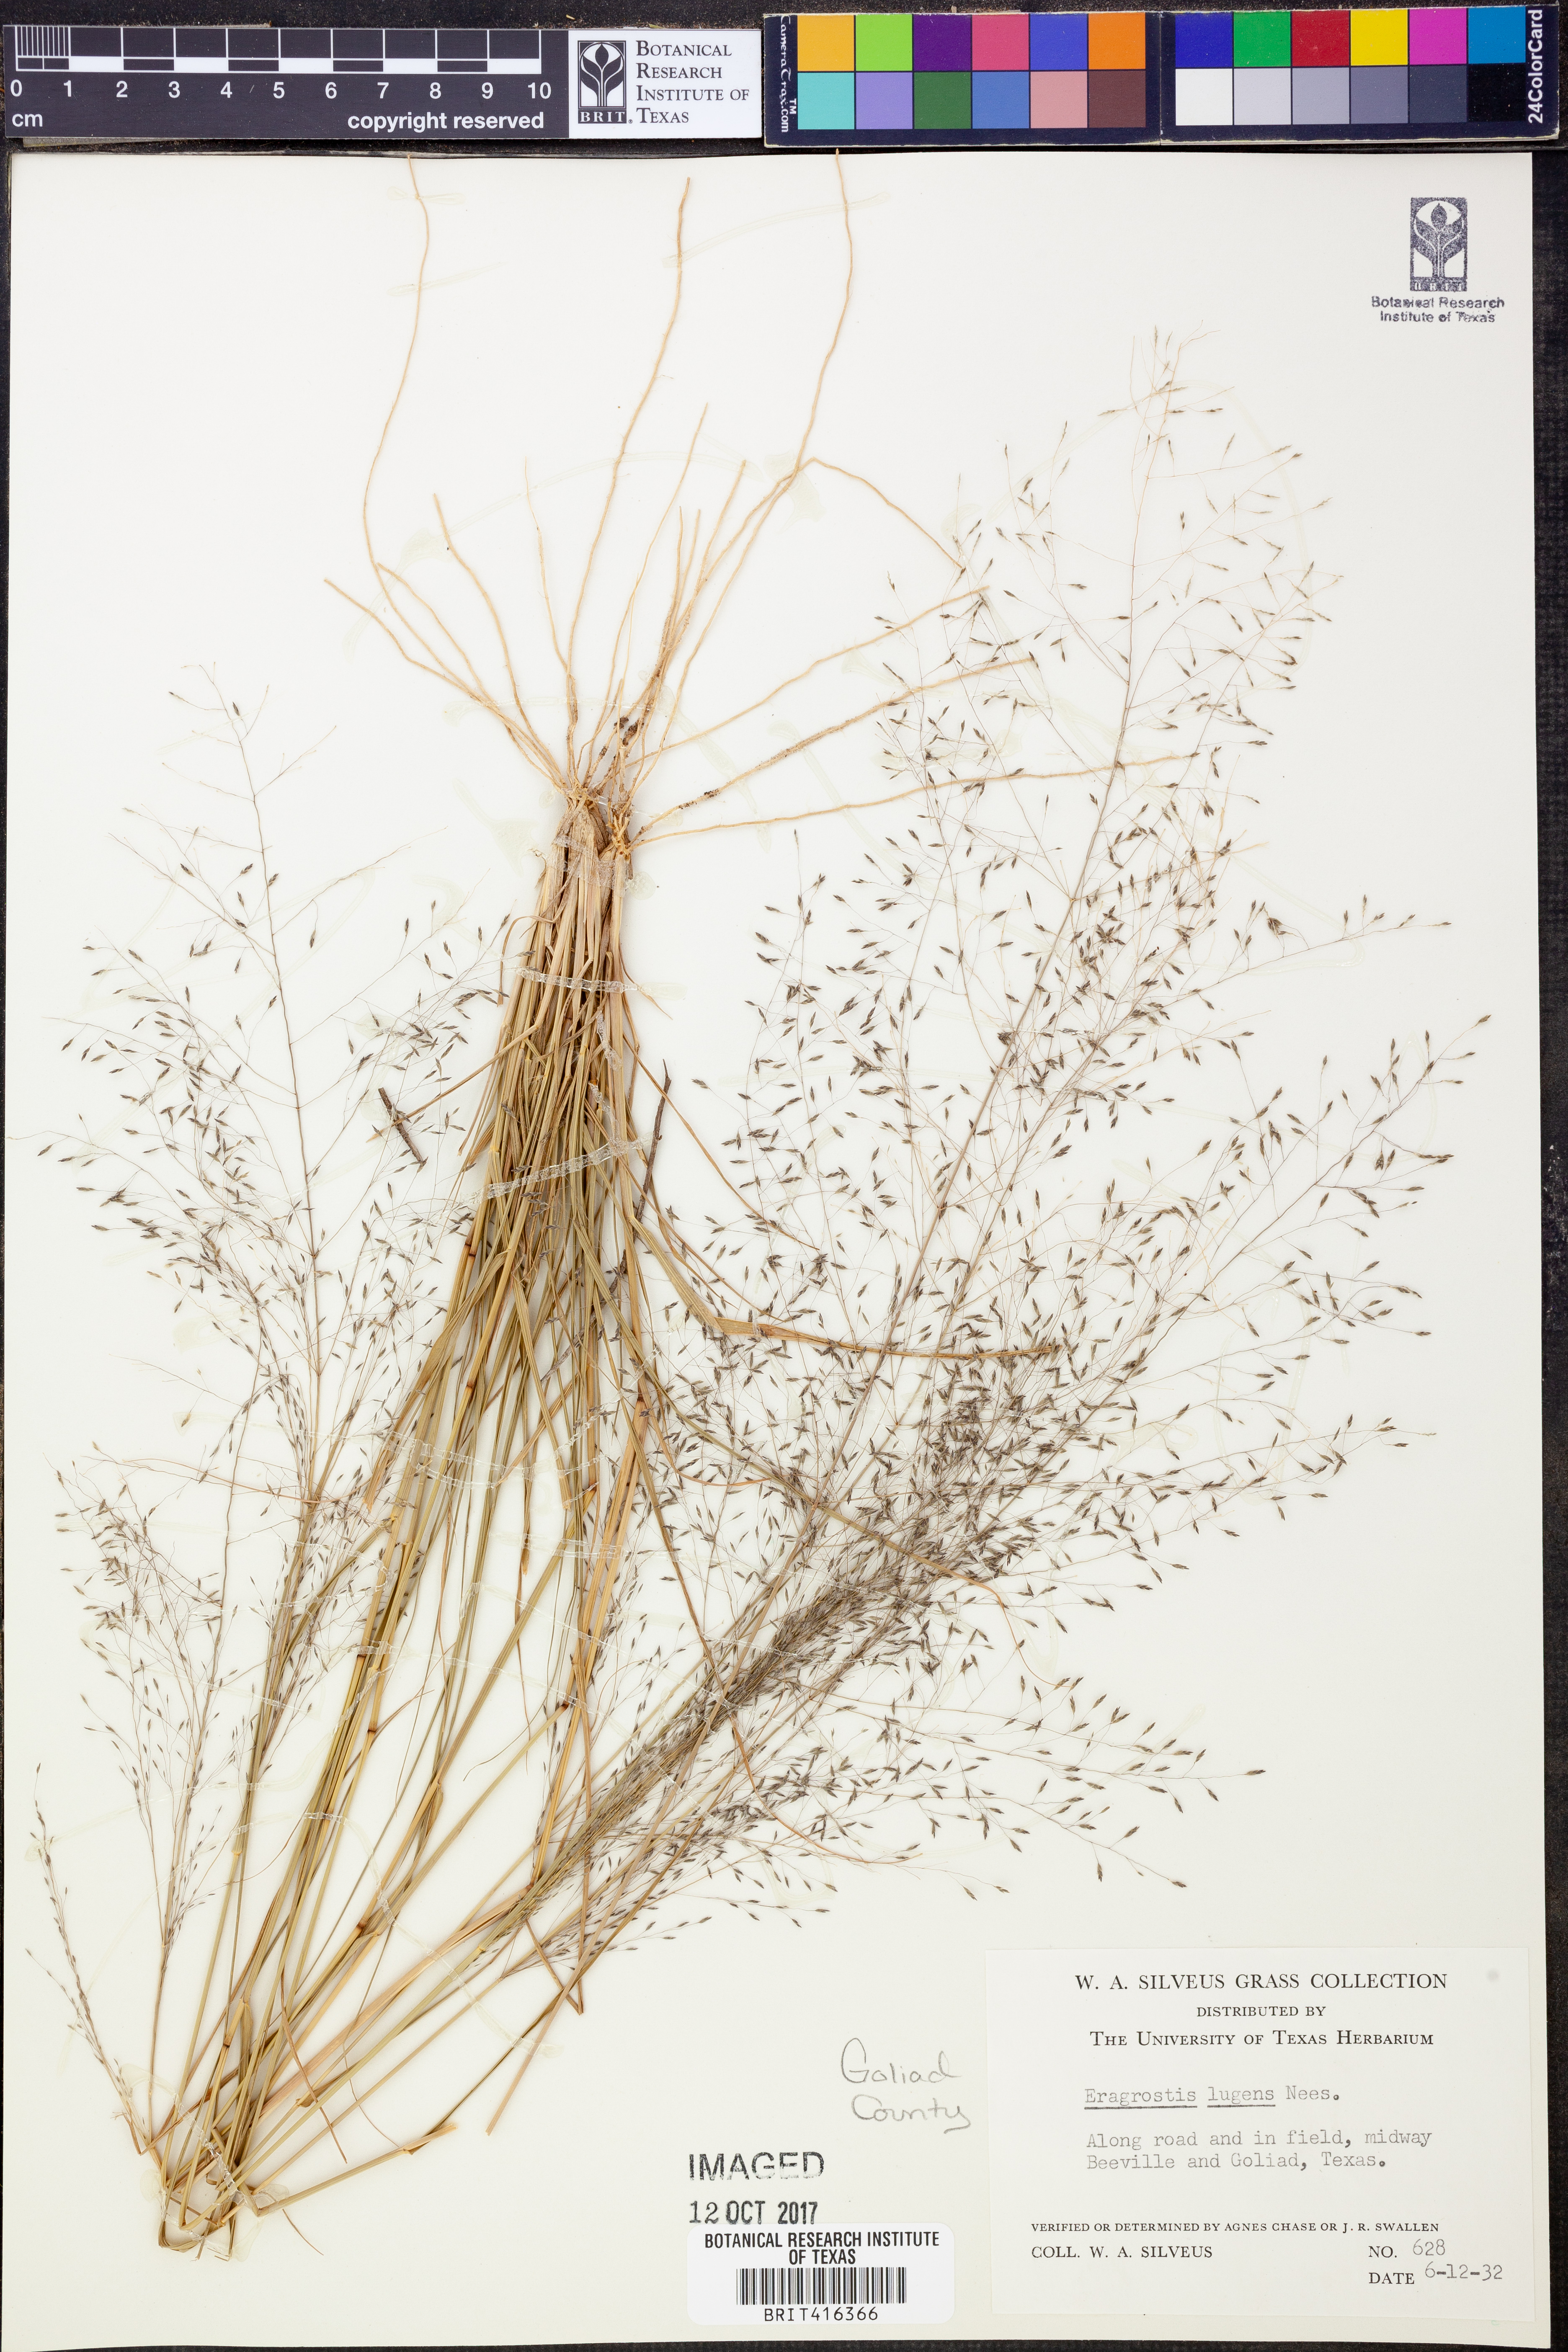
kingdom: Plantae
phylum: Tracheophyta
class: Liliopsida
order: Poales
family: Poaceae
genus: Eragrostis
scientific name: Eragrostis capillaris
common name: Hair-like lovegrass
